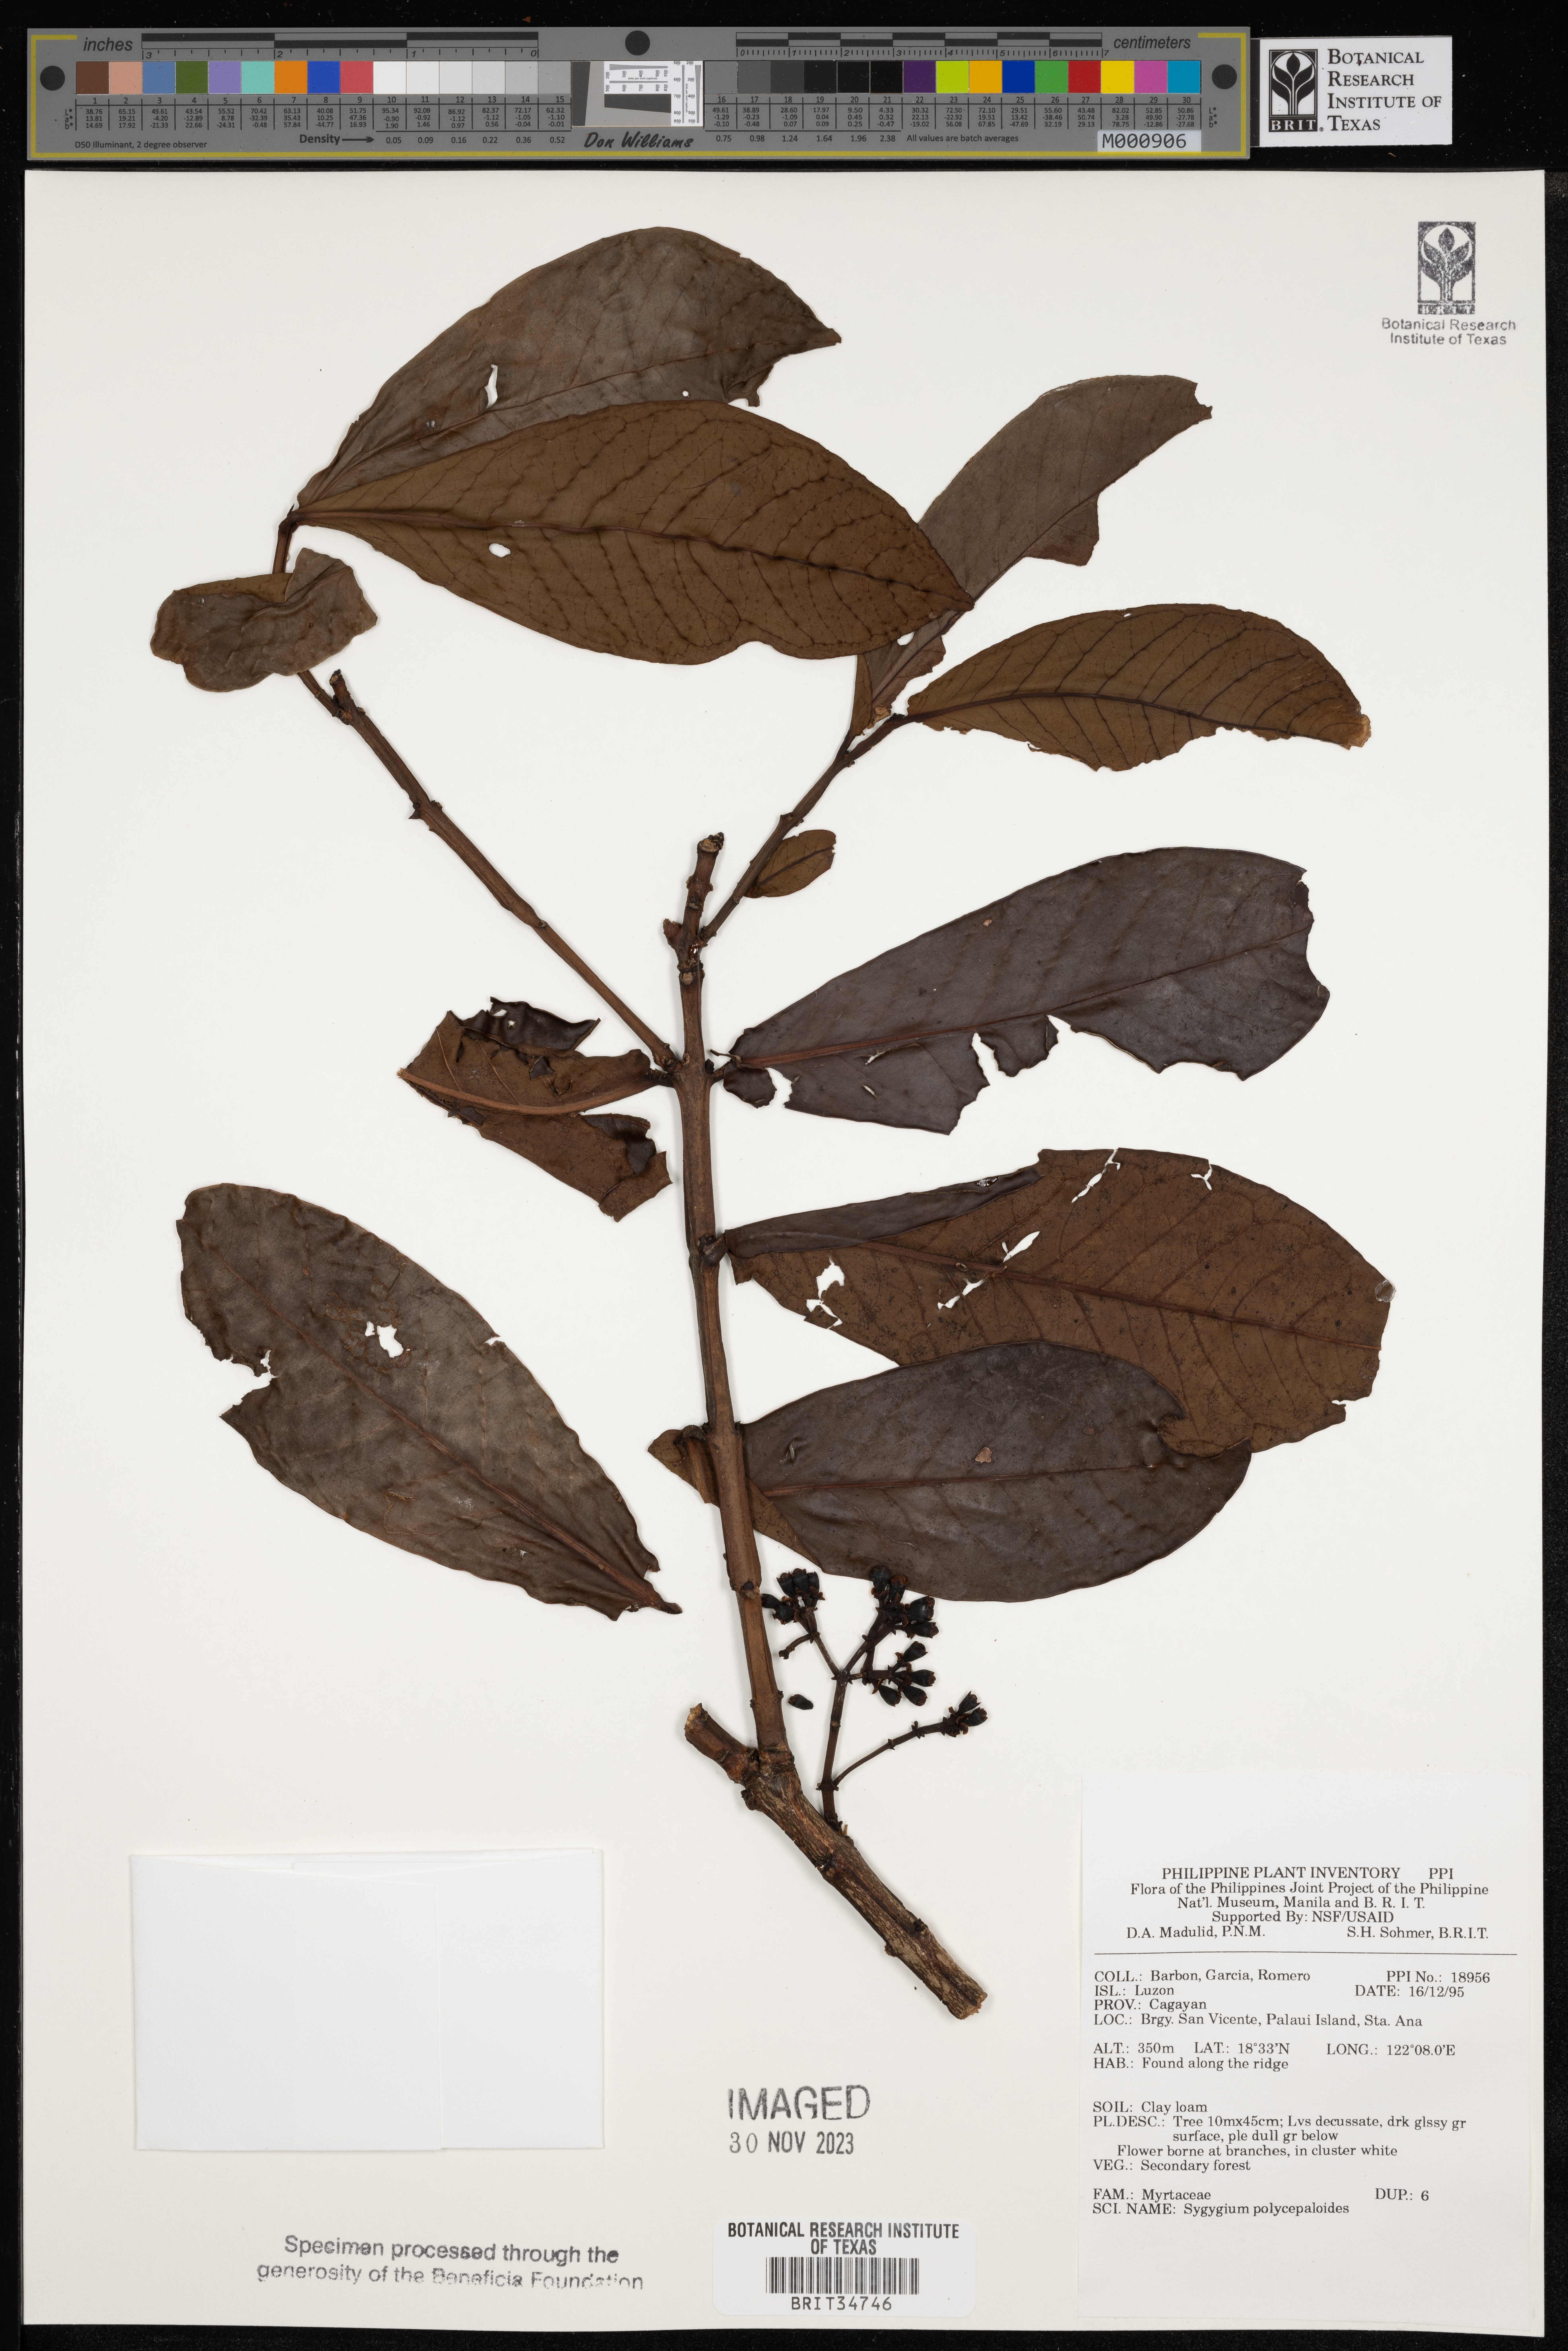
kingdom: Plantae
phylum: Tracheophyta
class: Magnoliopsida
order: Myrtales
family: Myrtaceae
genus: Syzygium
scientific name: Syzygium polycephaloides
